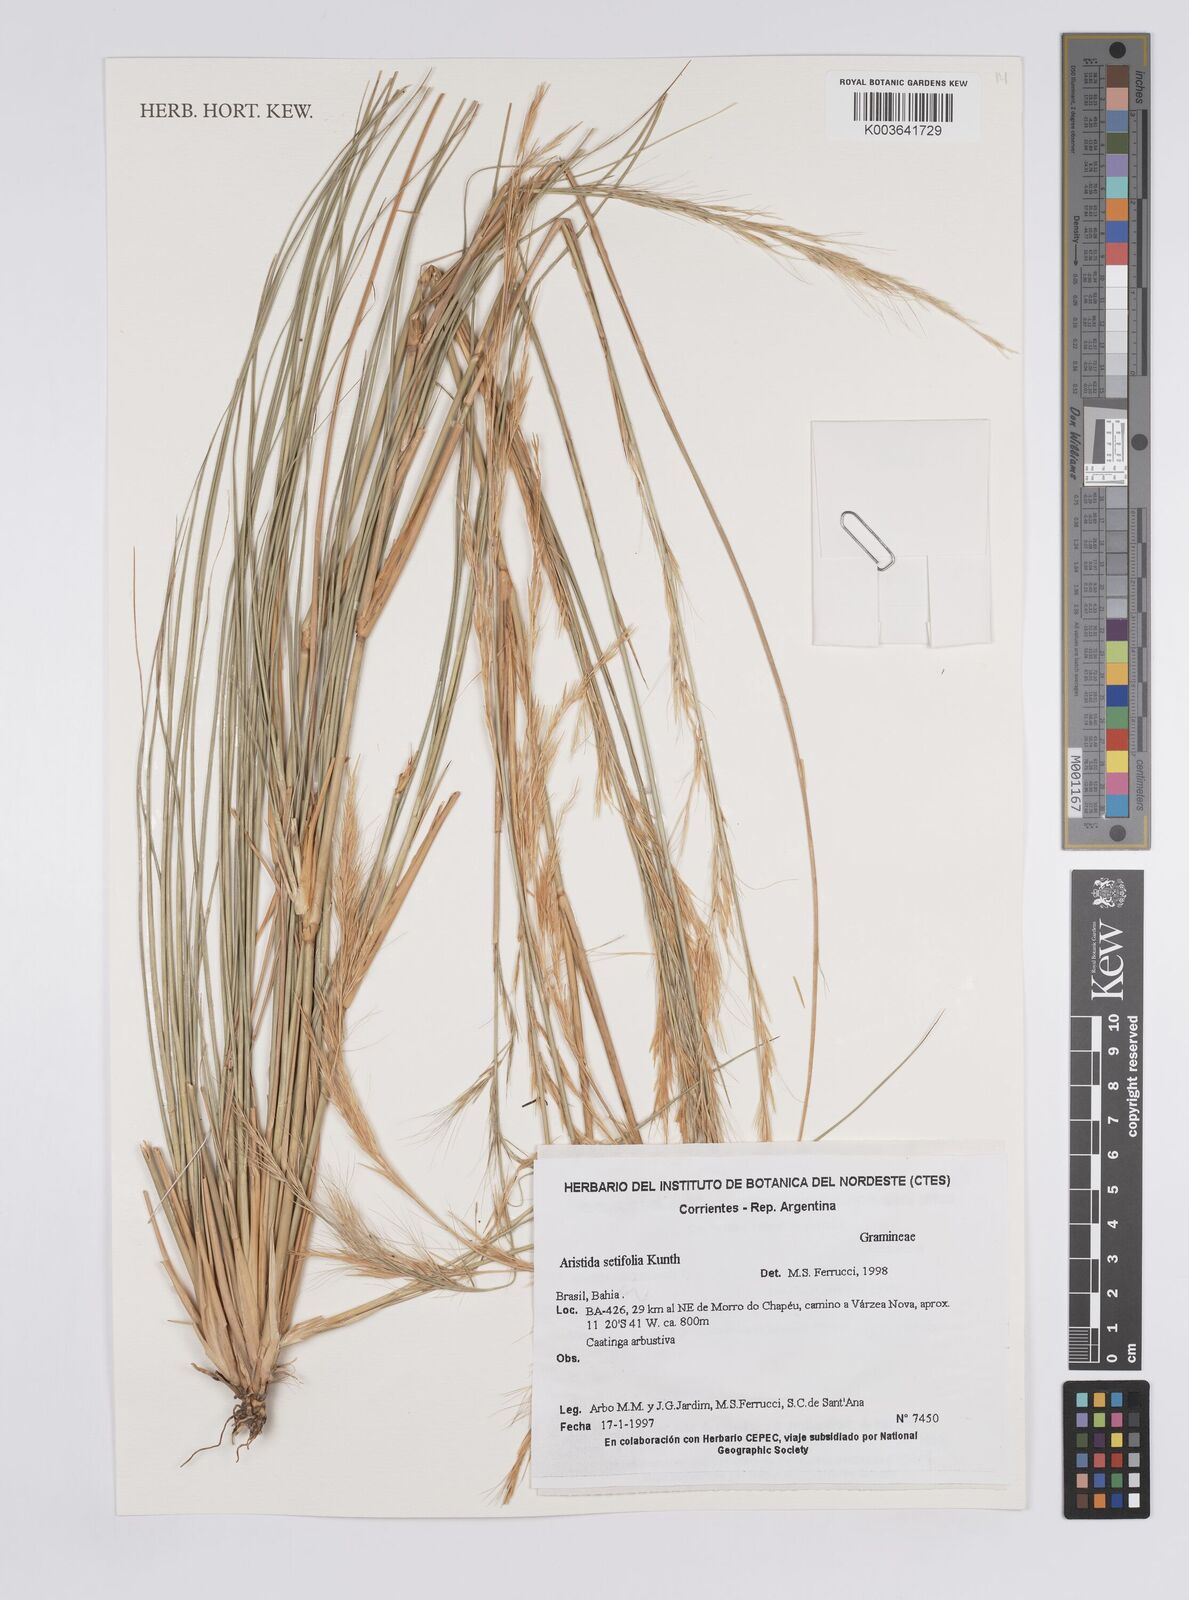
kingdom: Plantae
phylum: Tracheophyta
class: Liliopsida
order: Poales
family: Poaceae
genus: Aristida
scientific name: Aristida setifolia
